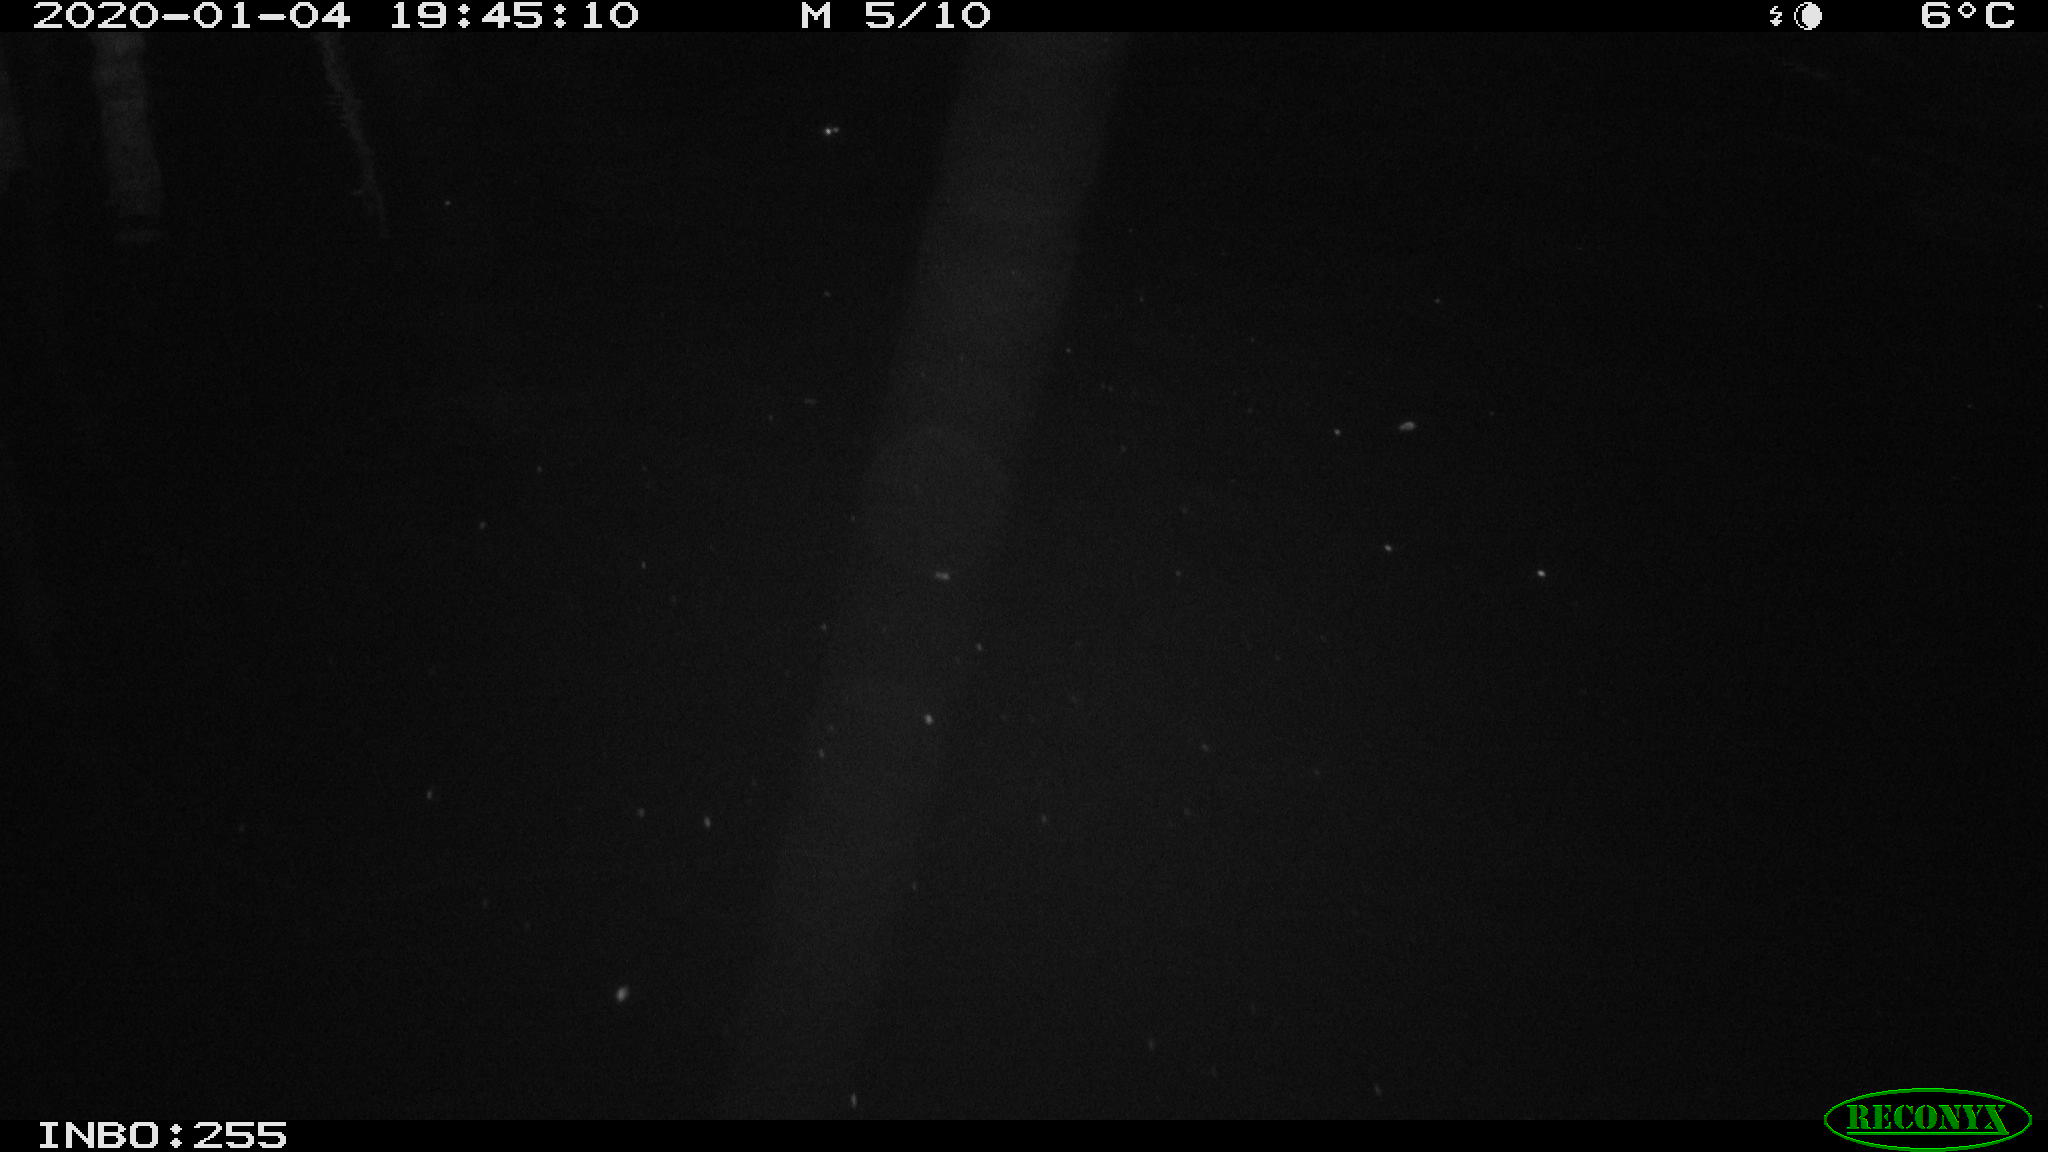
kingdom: Animalia
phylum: Chordata
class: Mammalia
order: Rodentia
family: Muridae
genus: Rattus
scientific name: Rattus norvegicus
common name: Brown rat
